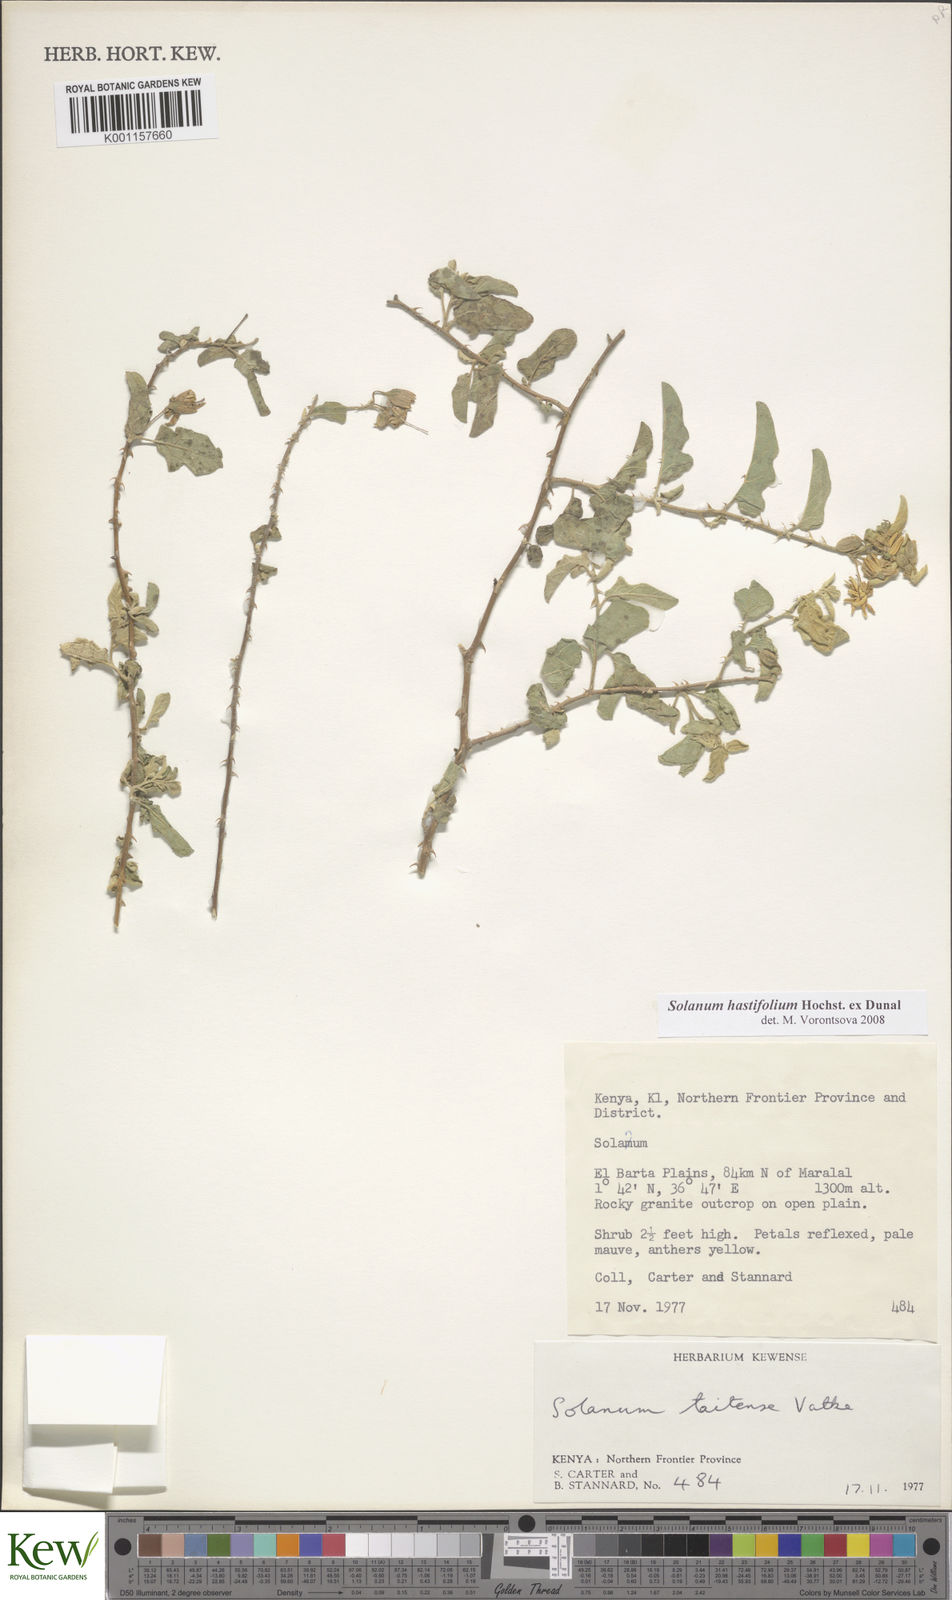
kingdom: Plantae
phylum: Tracheophyta
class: Magnoliopsida
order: Solanales
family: Solanaceae
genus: Solanum
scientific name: Solanum hastifolium
